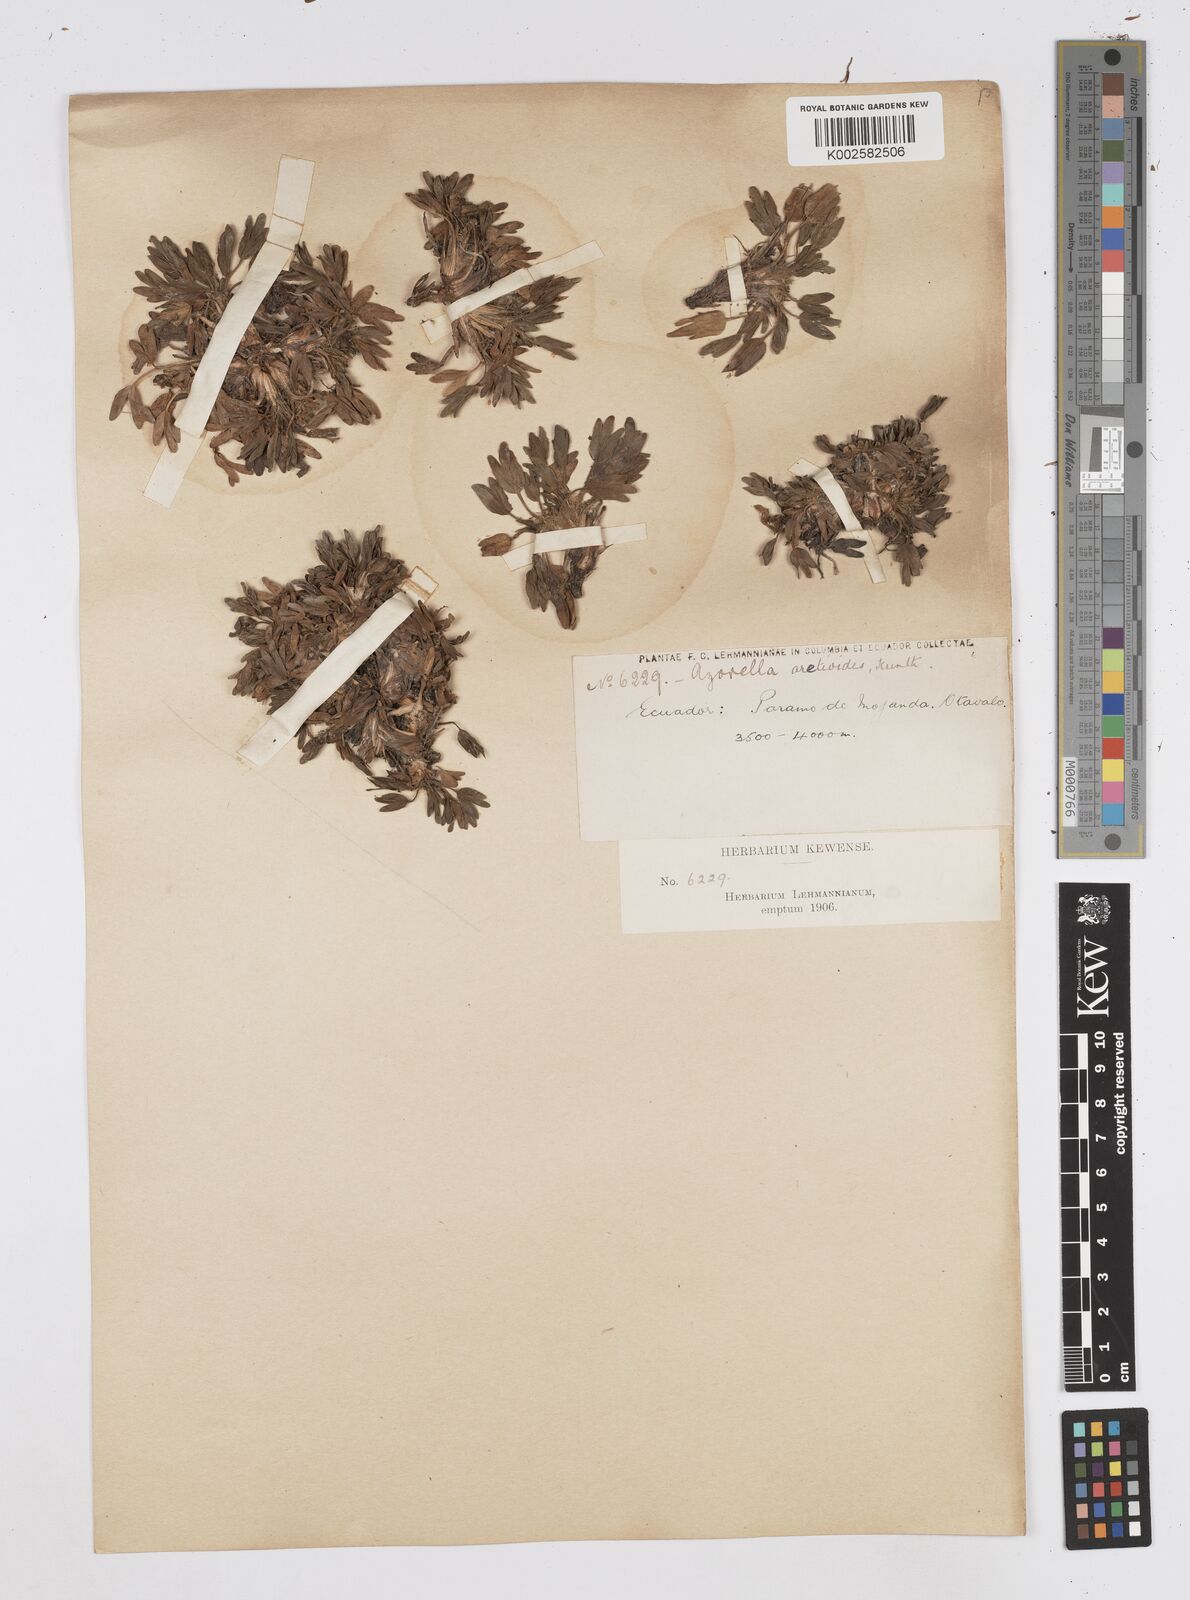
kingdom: Plantae
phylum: Tracheophyta
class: Magnoliopsida
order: Apiales
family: Apiaceae
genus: Azorella
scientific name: Azorella aretioides
